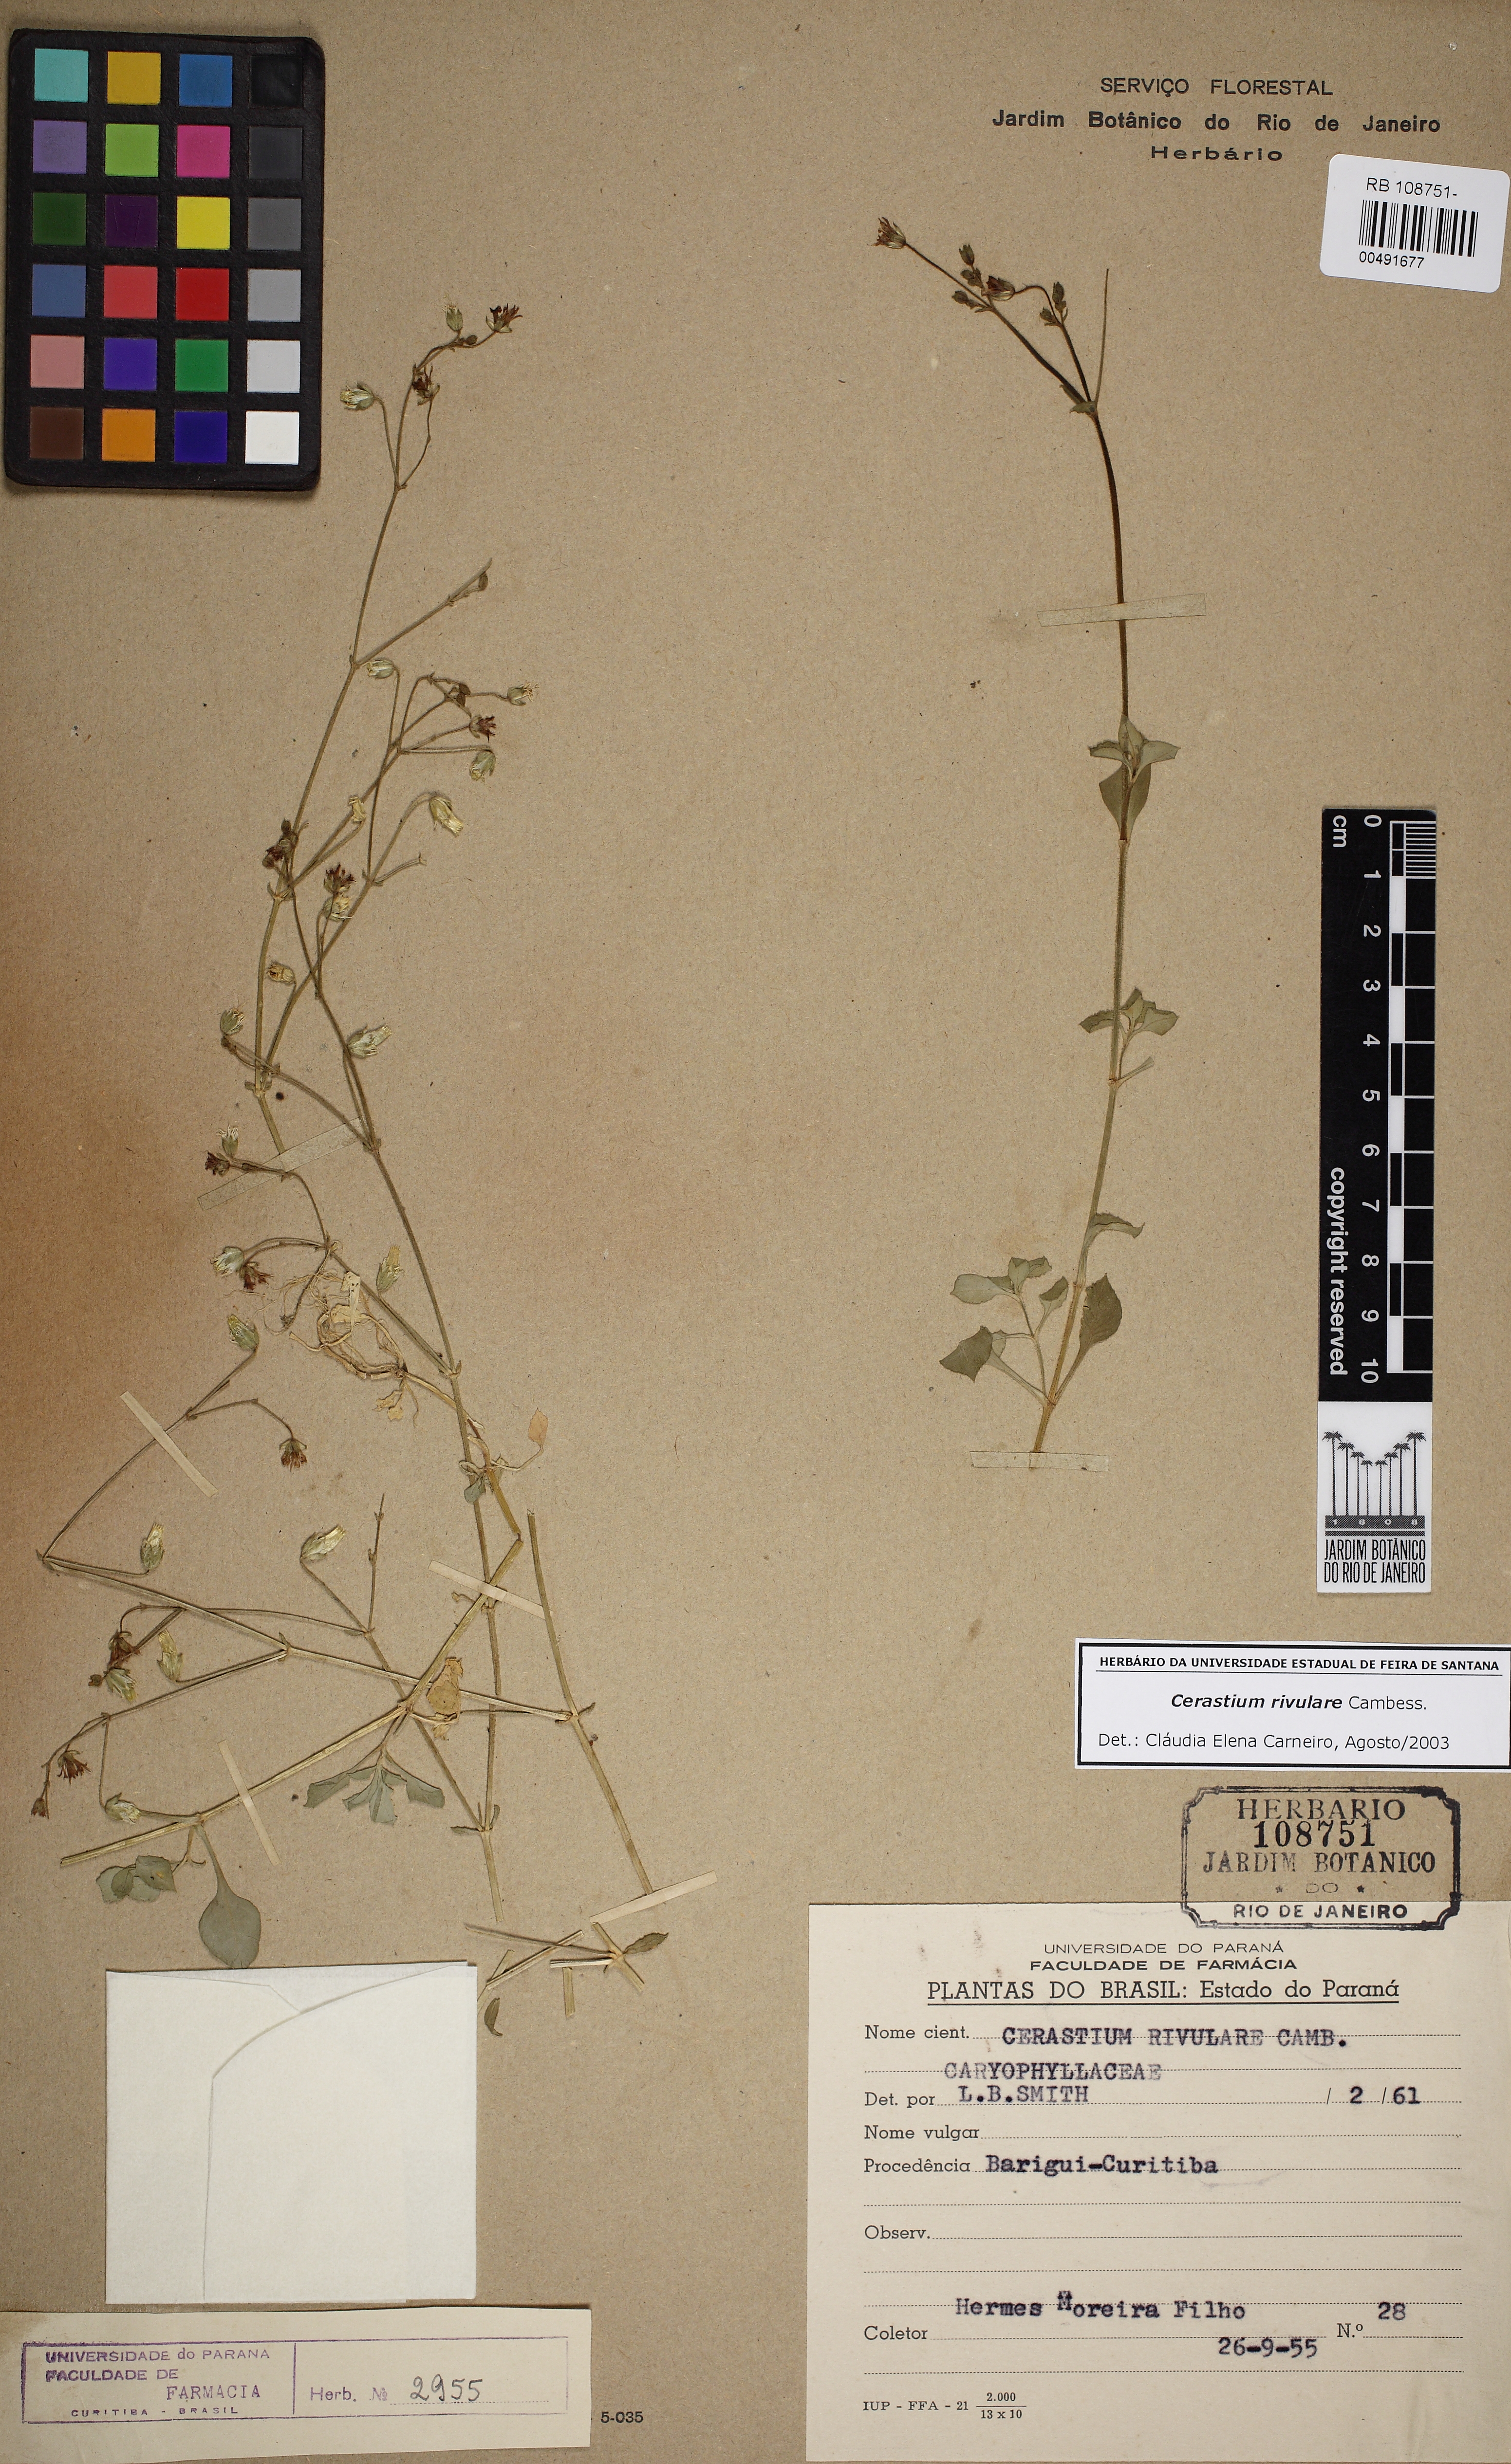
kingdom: Plantae
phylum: Tracheophyta
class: Magnoliopsida
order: Caryophyllales
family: Caryophyllaceae
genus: Cerastium
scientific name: Cerastium rivulare
